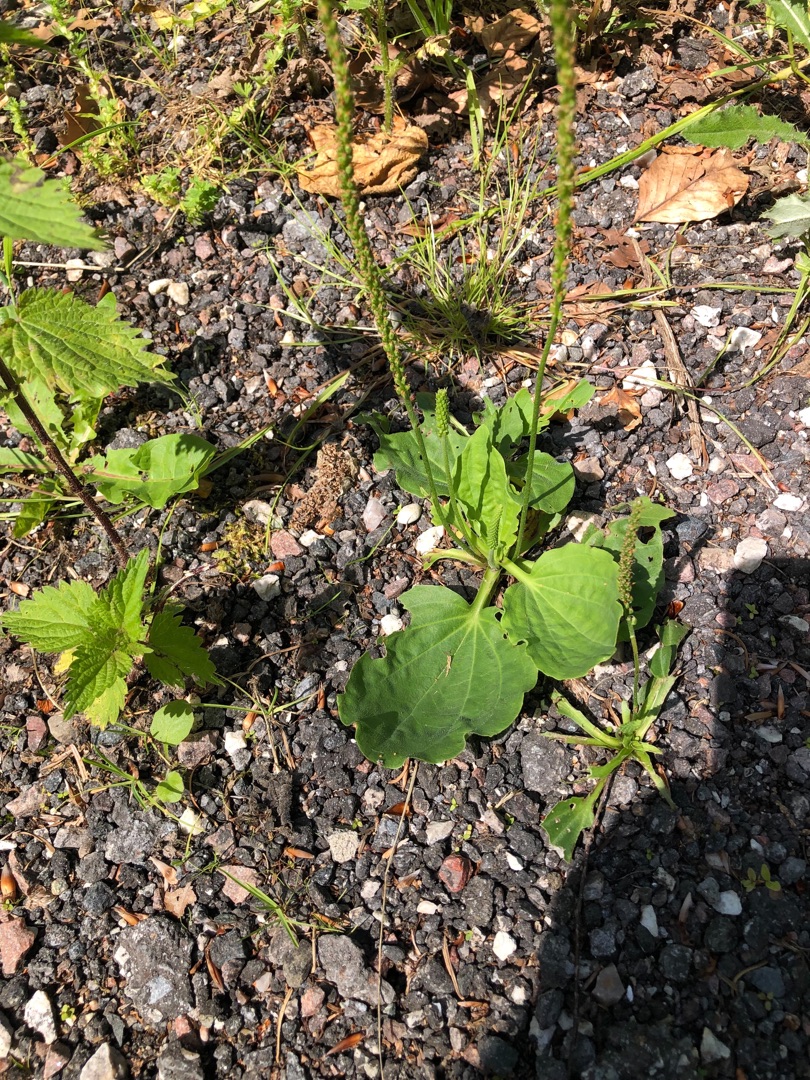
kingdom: Plantae
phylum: Tracheophyta
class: Magnoliopsida
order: Lamiales
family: Plantaginaceae
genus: Plantago
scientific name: Plantago major
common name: Glat vejbred
